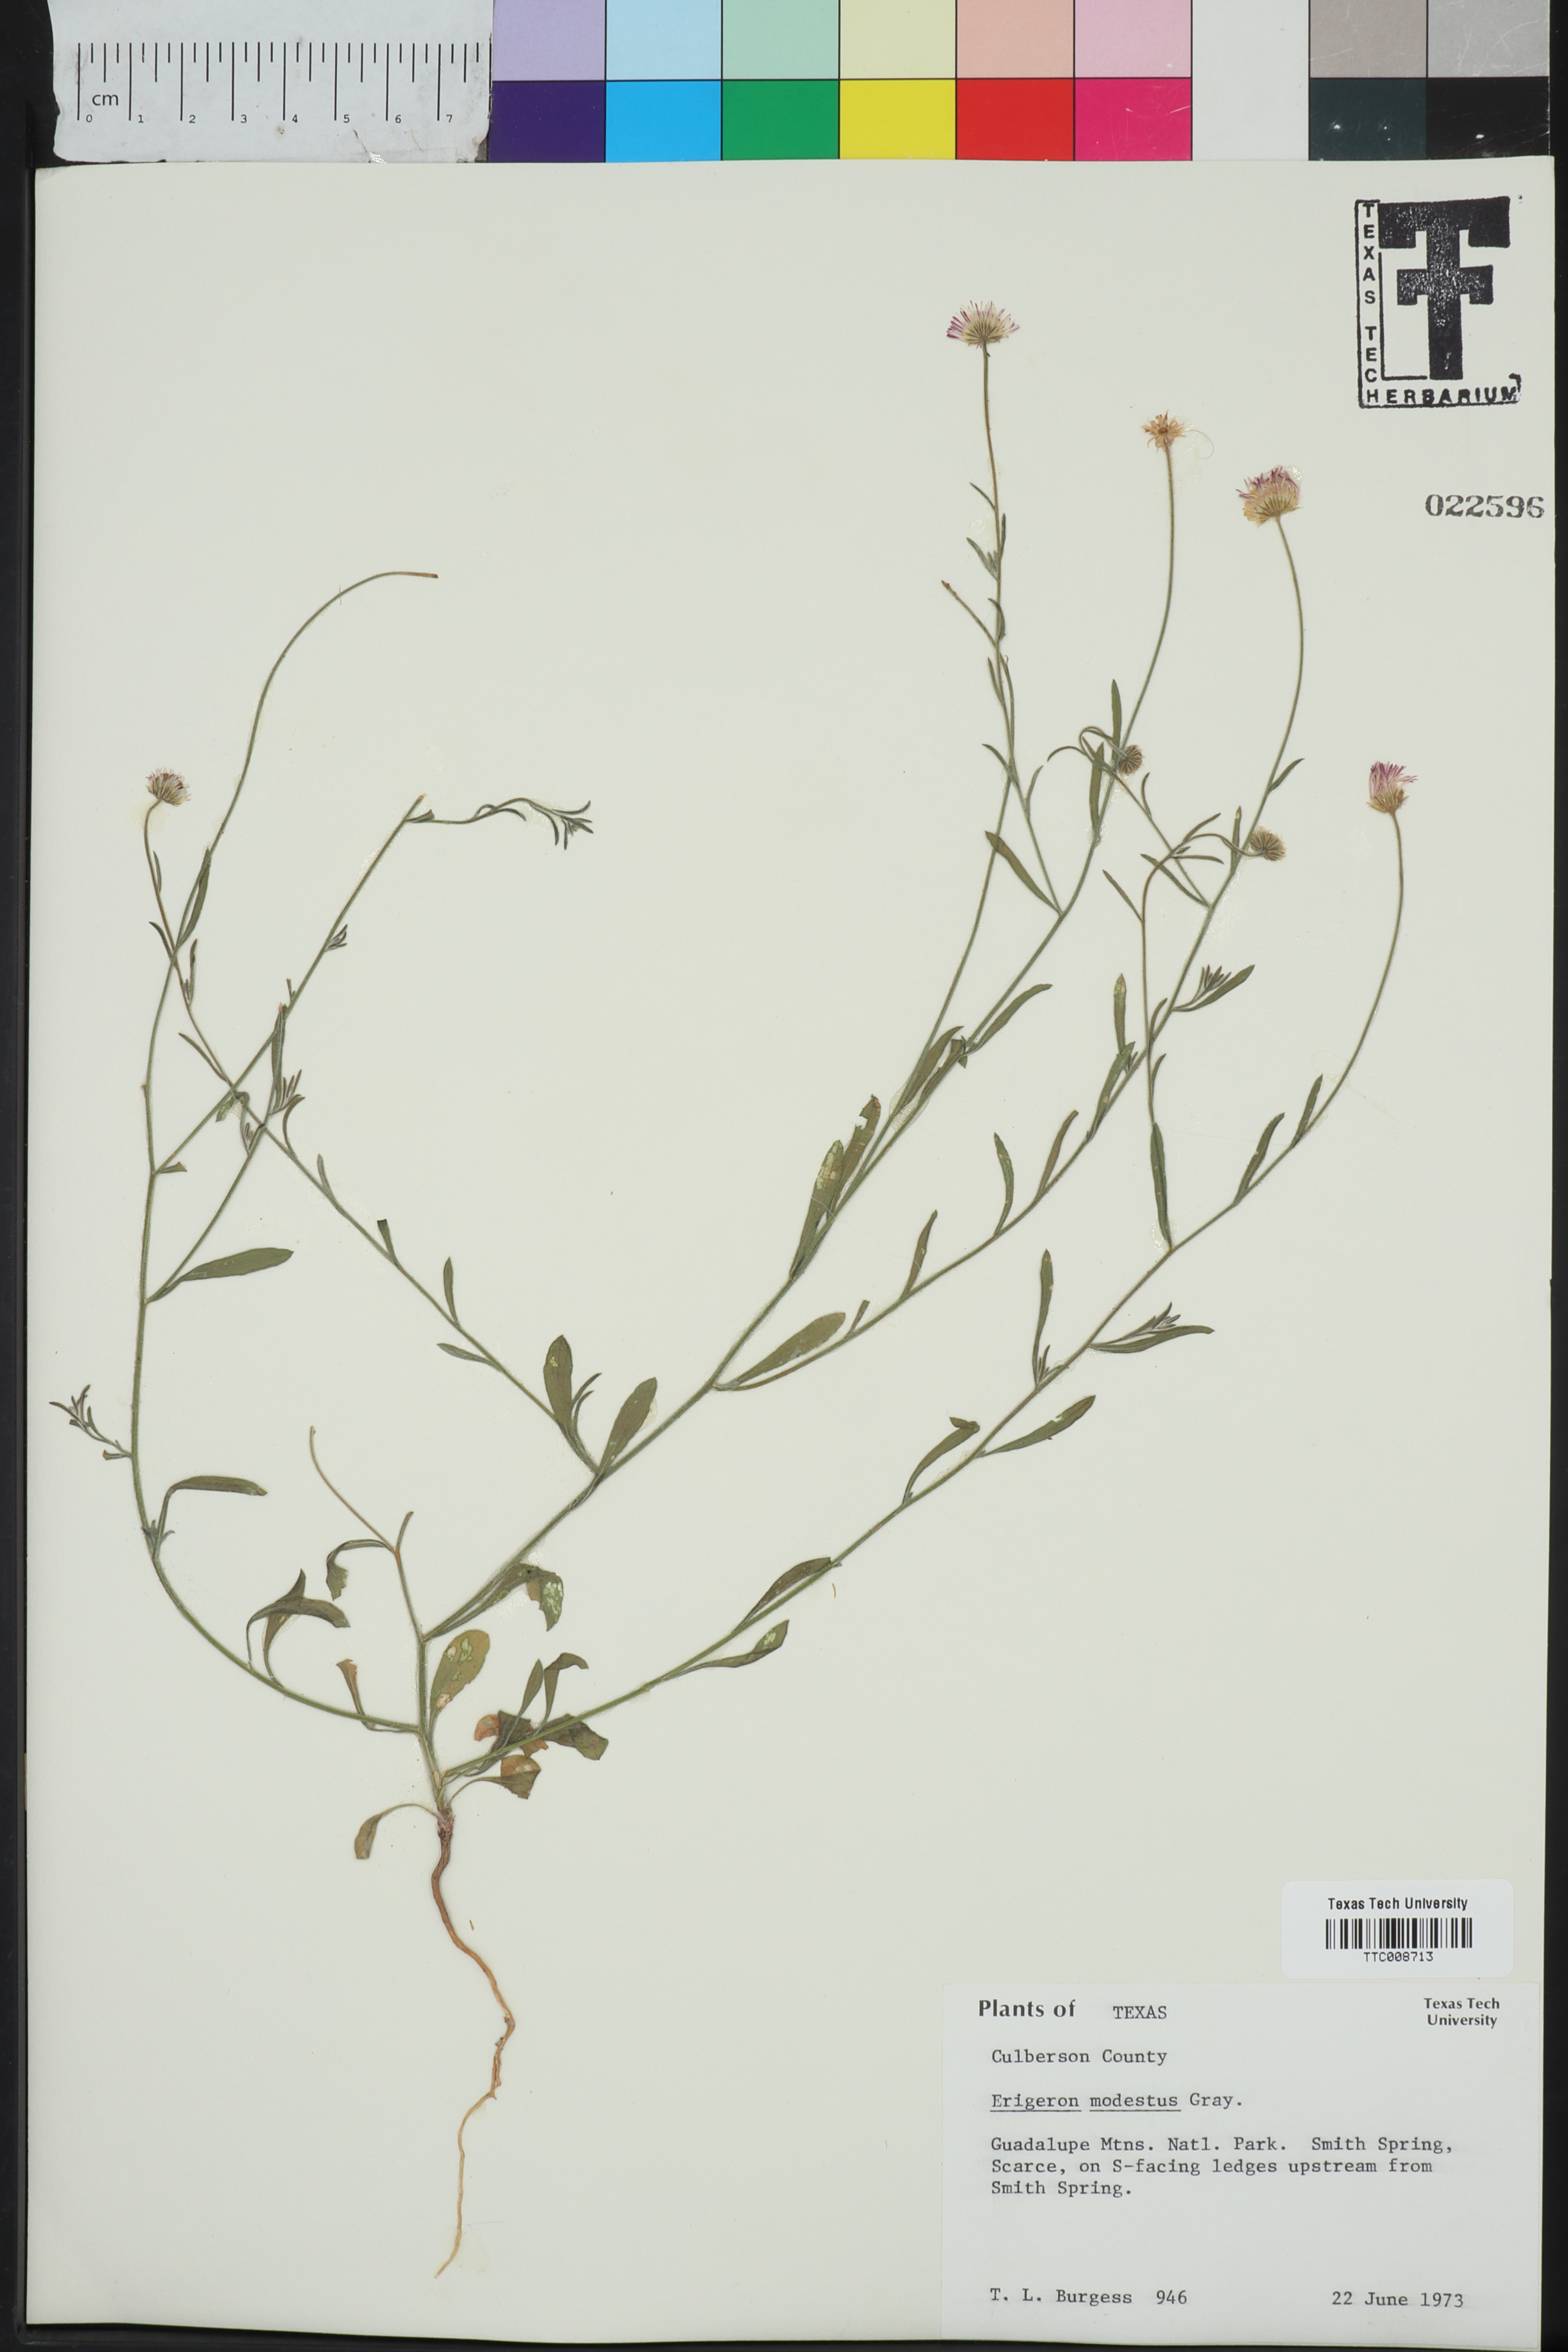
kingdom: Plantae
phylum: Tracheophyta
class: Magnoliopsida
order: Asterales
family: Asteraceae
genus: Erigeron
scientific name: Erigeron modestus
